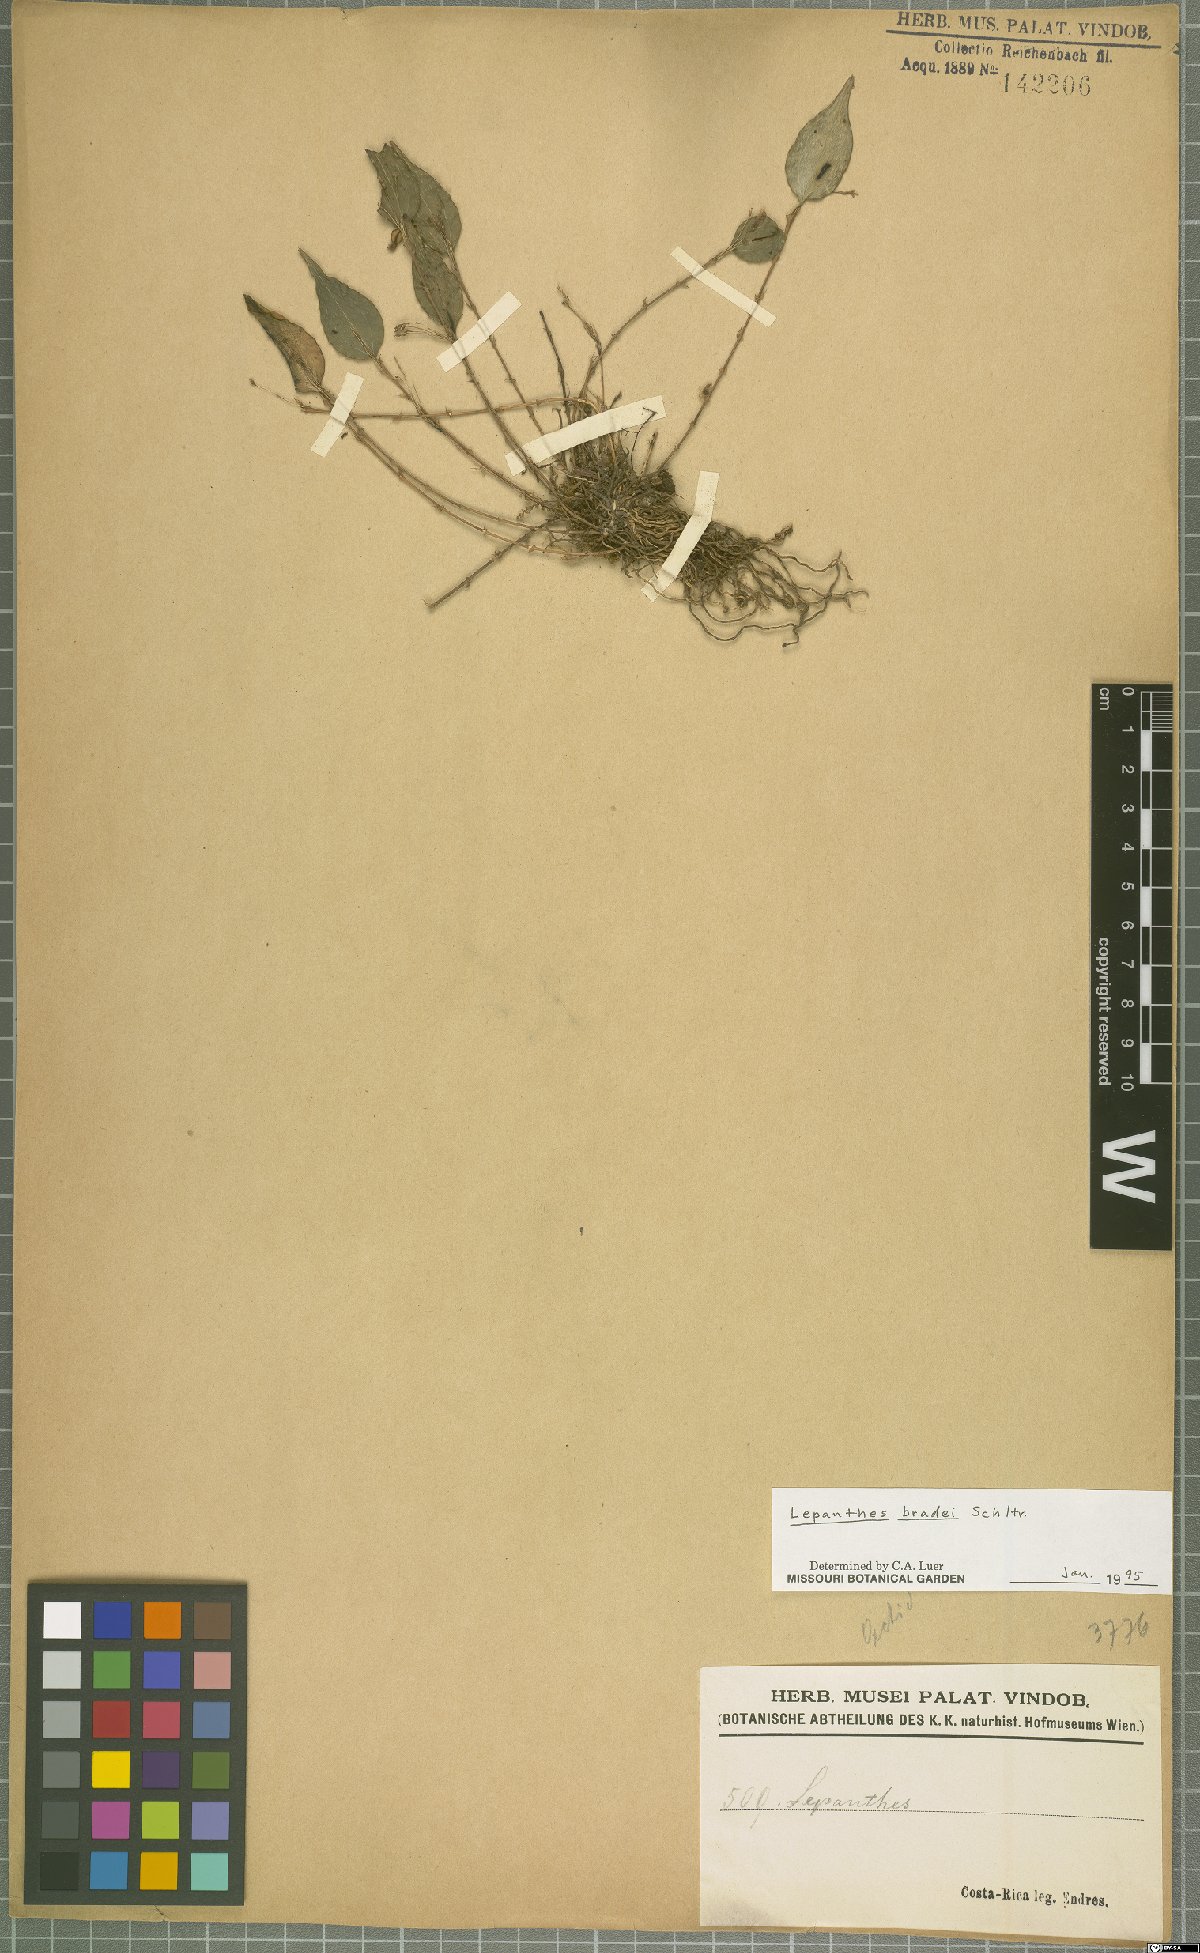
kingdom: Plantae
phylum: Tracheophyta
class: Liliopsida
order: Asparagales
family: Orchidaceae
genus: Lepanthes
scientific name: Lepanthes bradei
